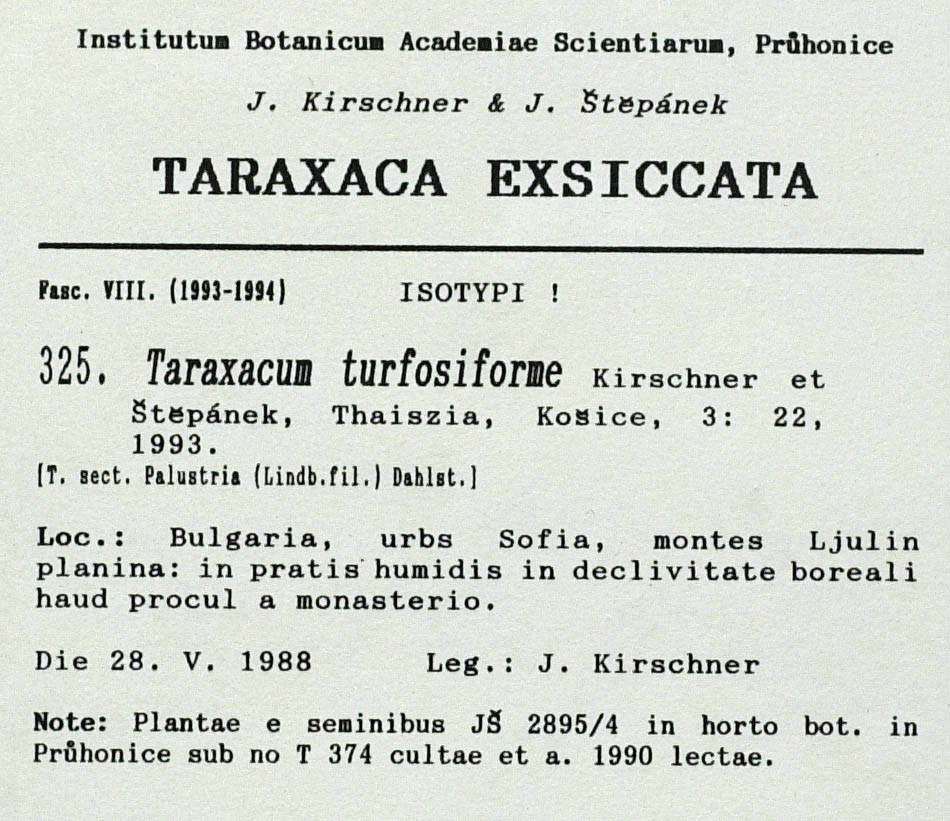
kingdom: Plantae
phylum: Tracheophyta
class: Magnoliopsida
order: Asterales
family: Asteraceae
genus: Taraxacum
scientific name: Taraxacum turfosiforme
